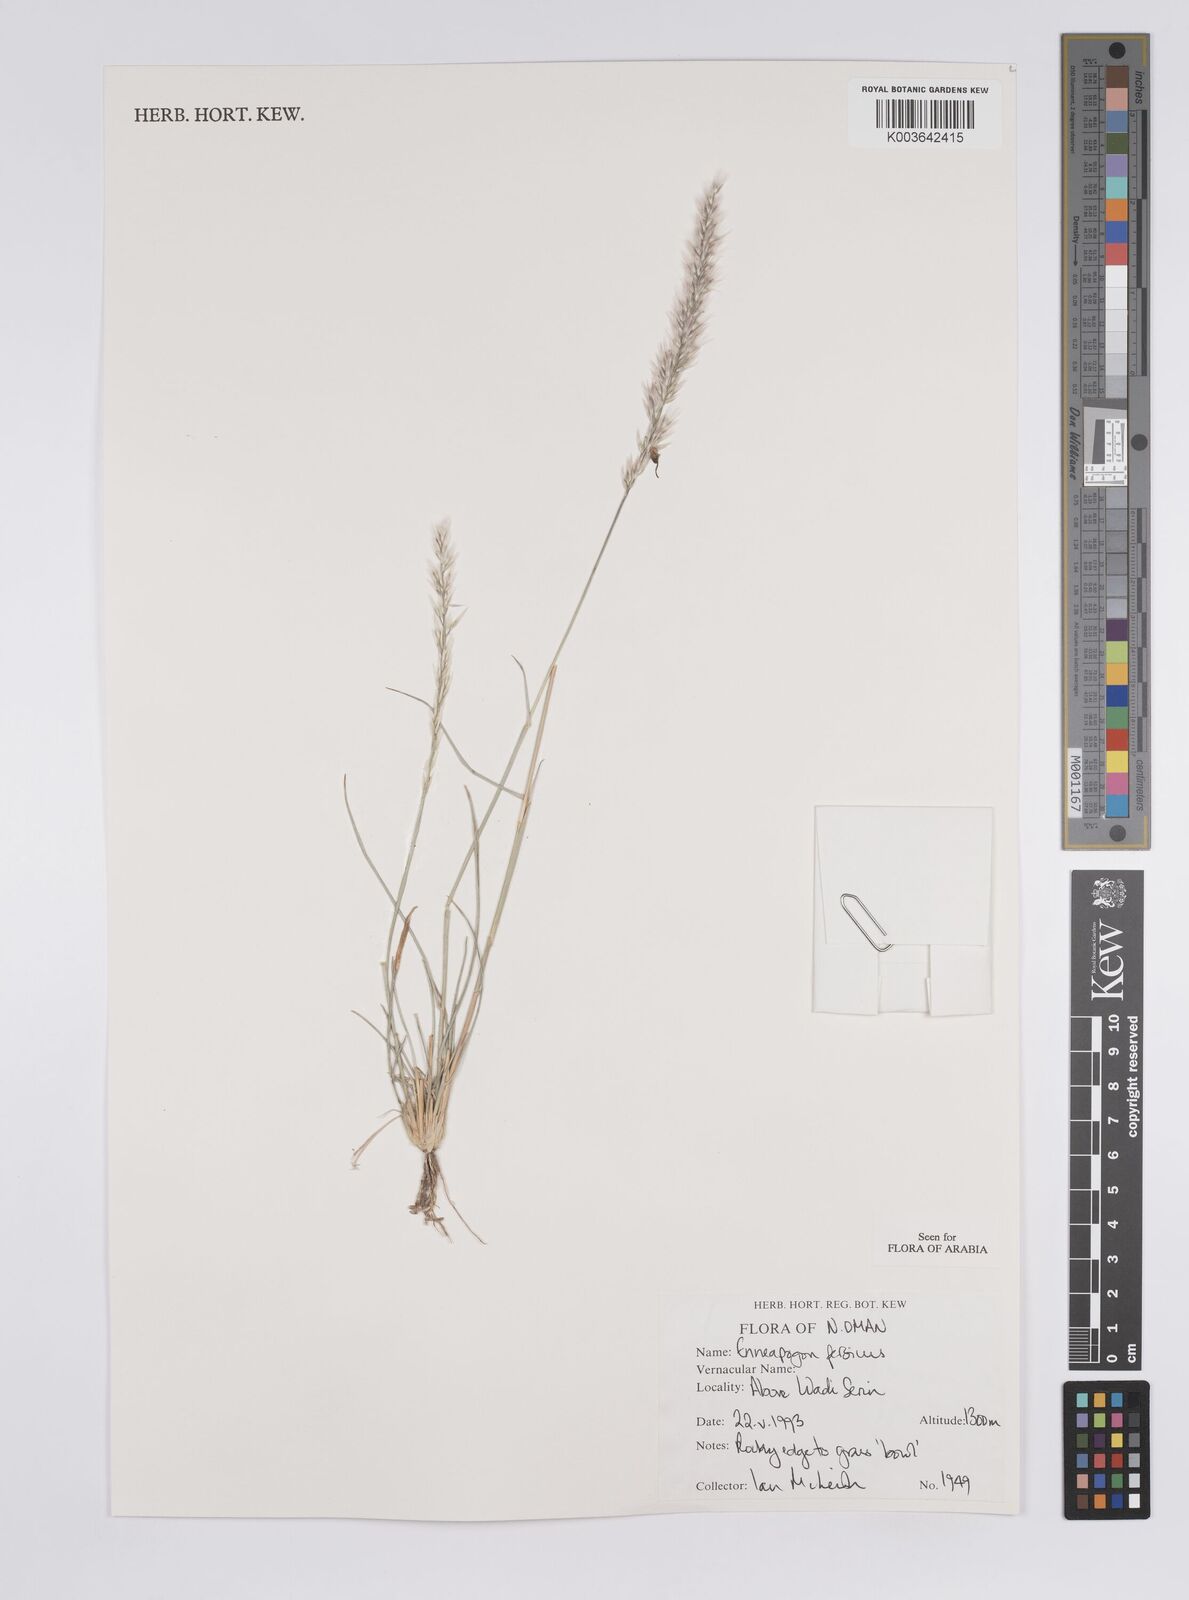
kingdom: Plantae
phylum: Tracheophyta
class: Liliopsida
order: Poales
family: Poaceae
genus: Enneapogon
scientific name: Enneapogon persicus
